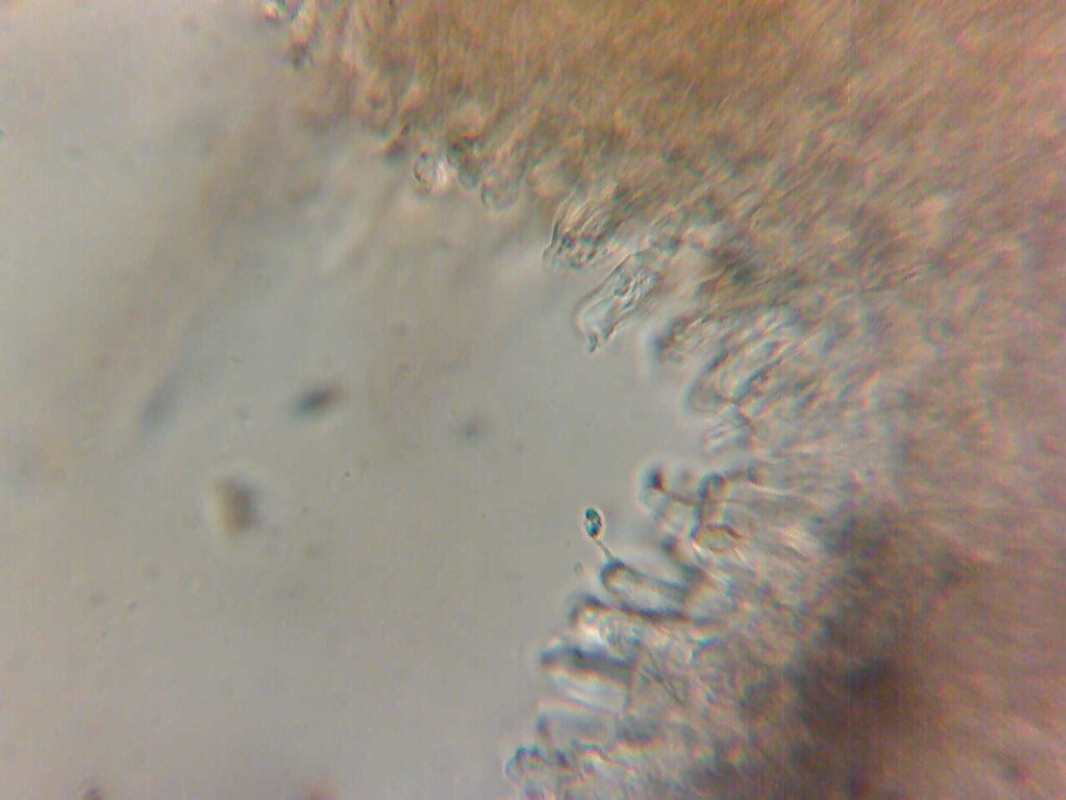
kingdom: Fungi
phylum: Basidiomycota
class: Agaricomycetes
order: Hymenochaetales
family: Schizoporaceae
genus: Xylodon
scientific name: Xylodon nesporii
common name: fintandet tandsvamp
